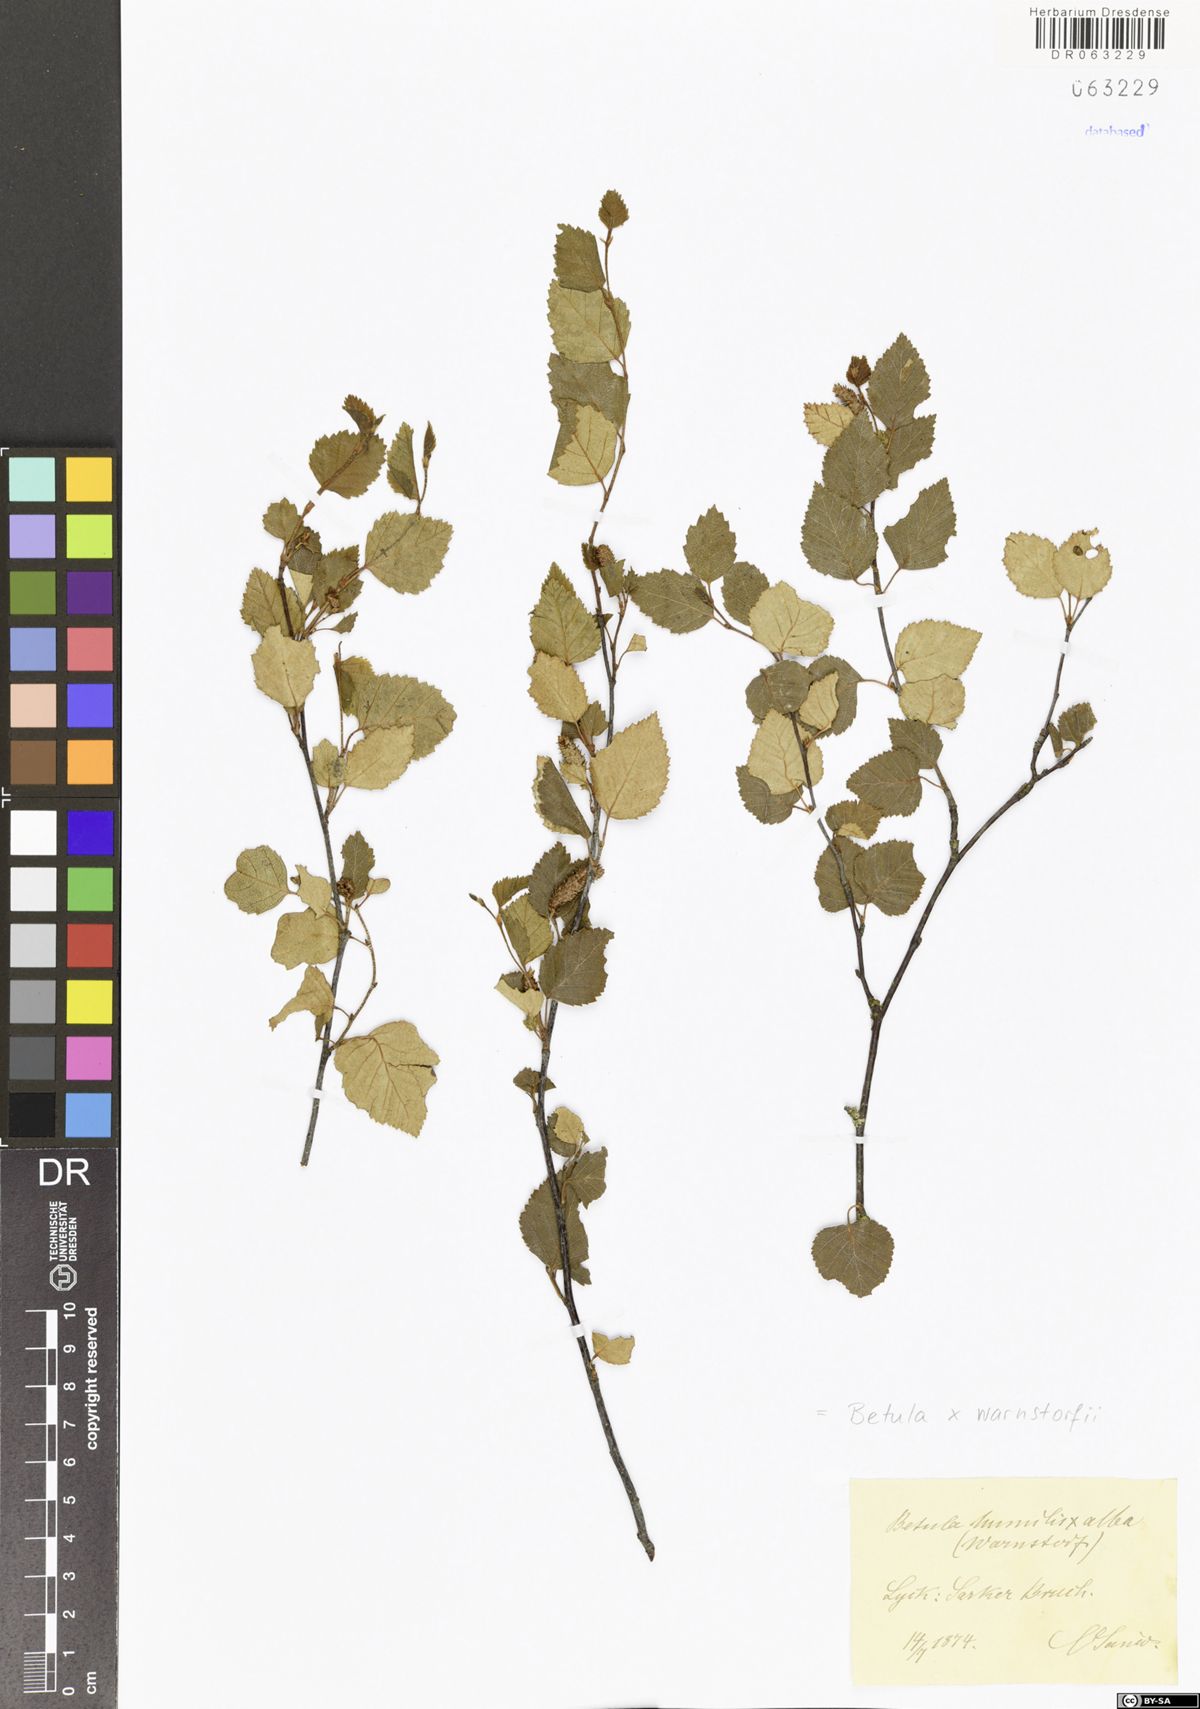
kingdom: Plantae
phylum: Tracheophyta
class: Magnoliopsida
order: Fagales
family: Betulaceae
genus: Betula
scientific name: Betula humilis x pubescens
